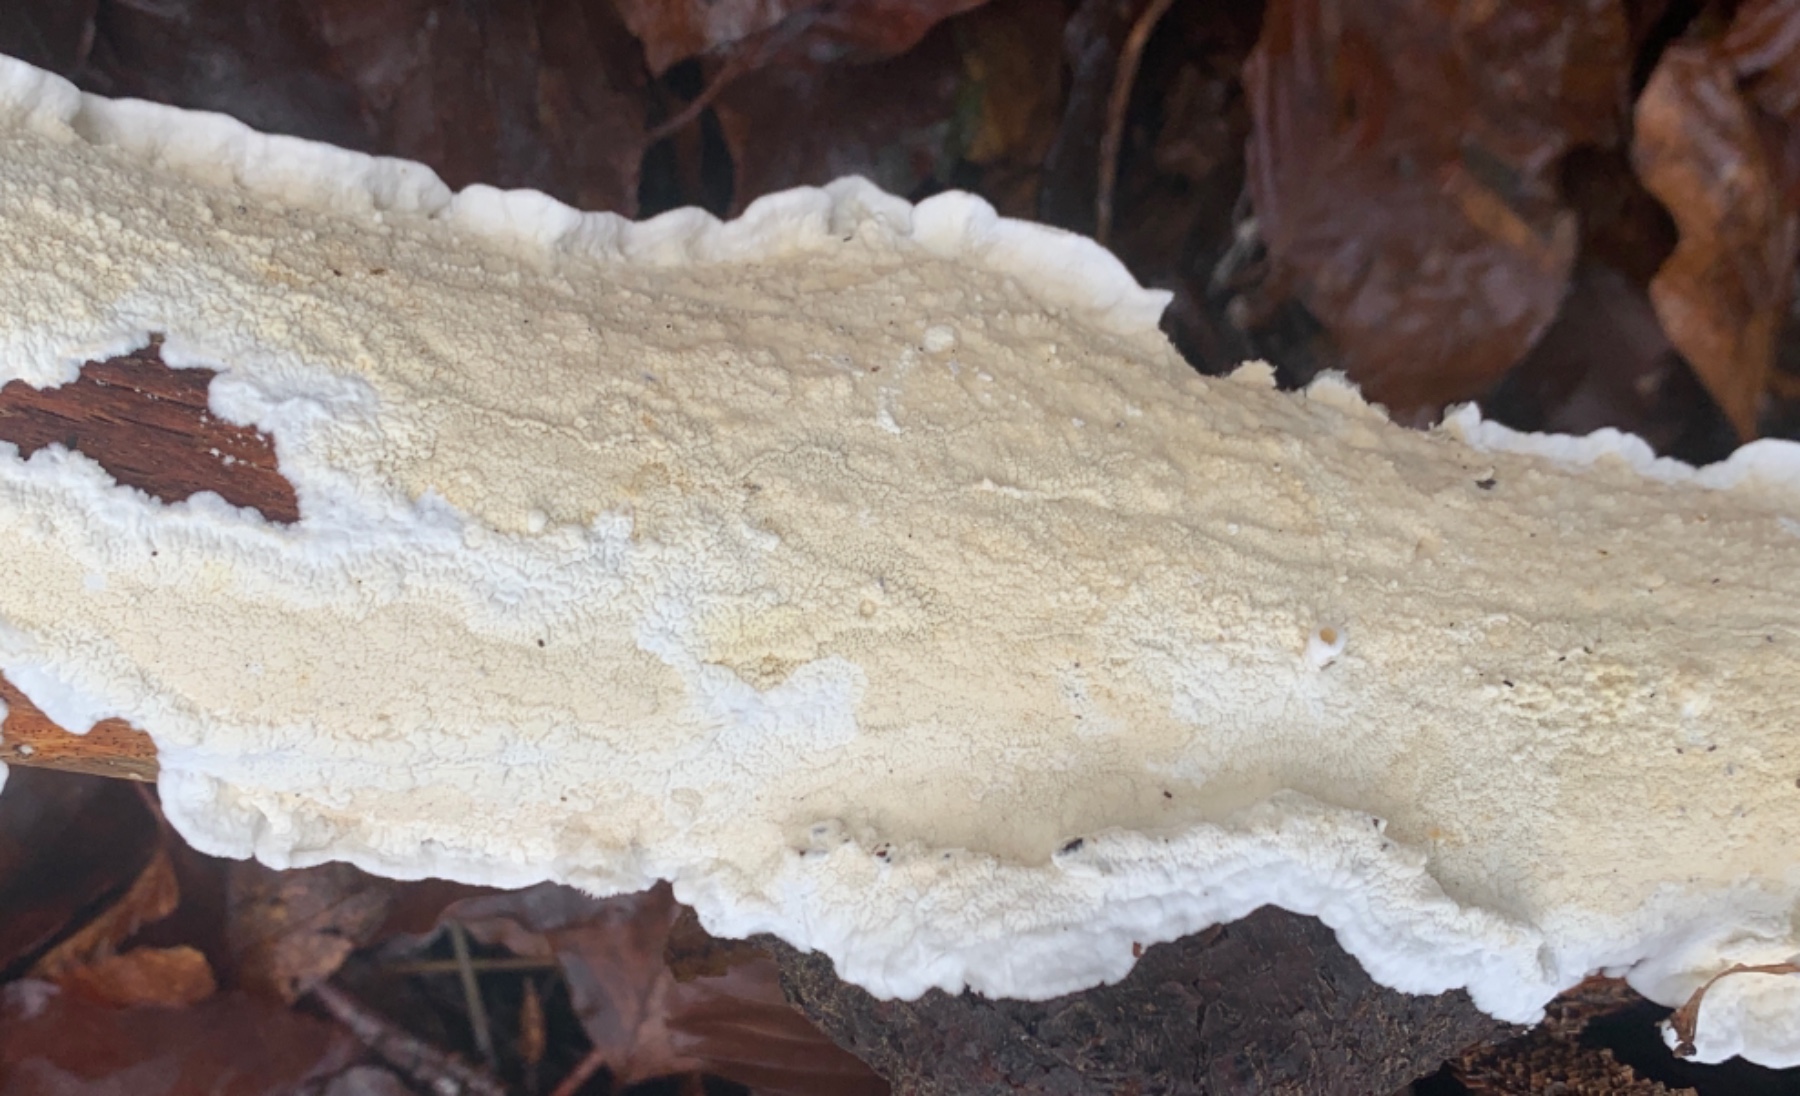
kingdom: Fungi
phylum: Basidiomycota
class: Agaricomycetes
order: Polyporales
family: Irpicaceae
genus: Byssomerulius
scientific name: Byssomerulius corium
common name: læder-åresvamp
